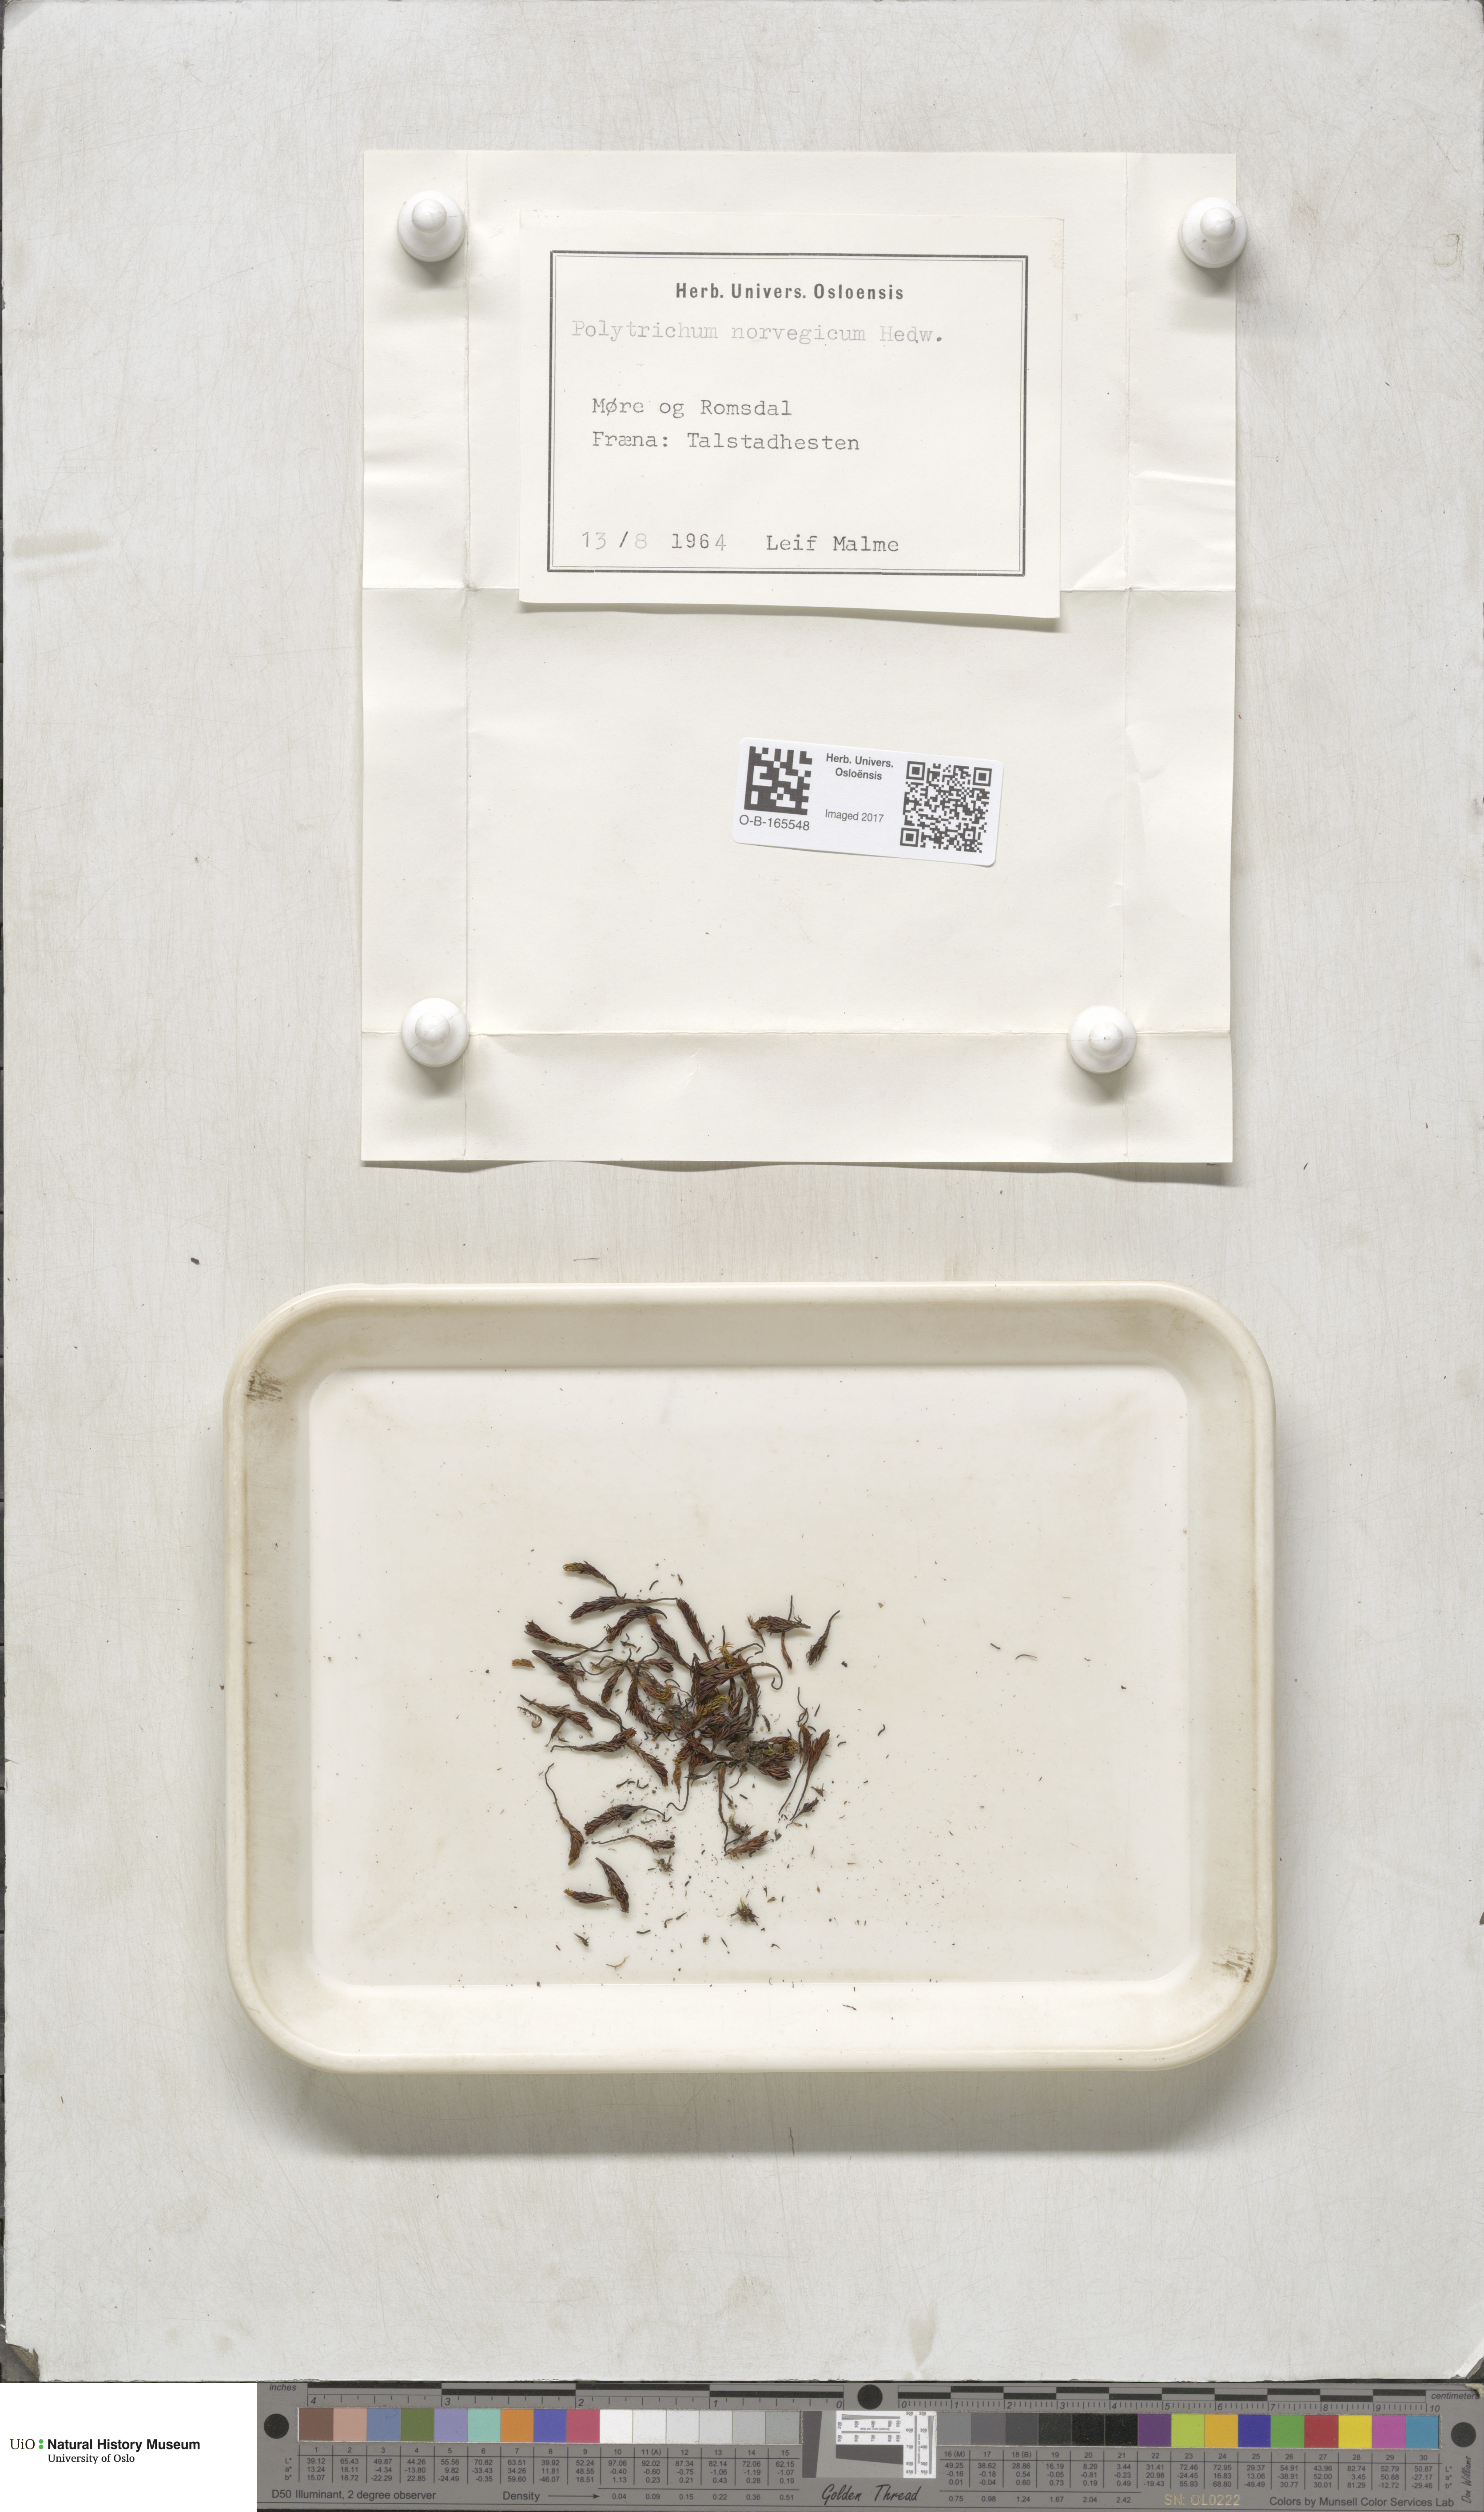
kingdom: Plantae
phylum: Bryophyta
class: Polytrichopsida
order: Polytrichales
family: Polytrichaceae
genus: Polytrichastrum
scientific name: Polytrichastrum sexangulare
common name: Northern haircap
